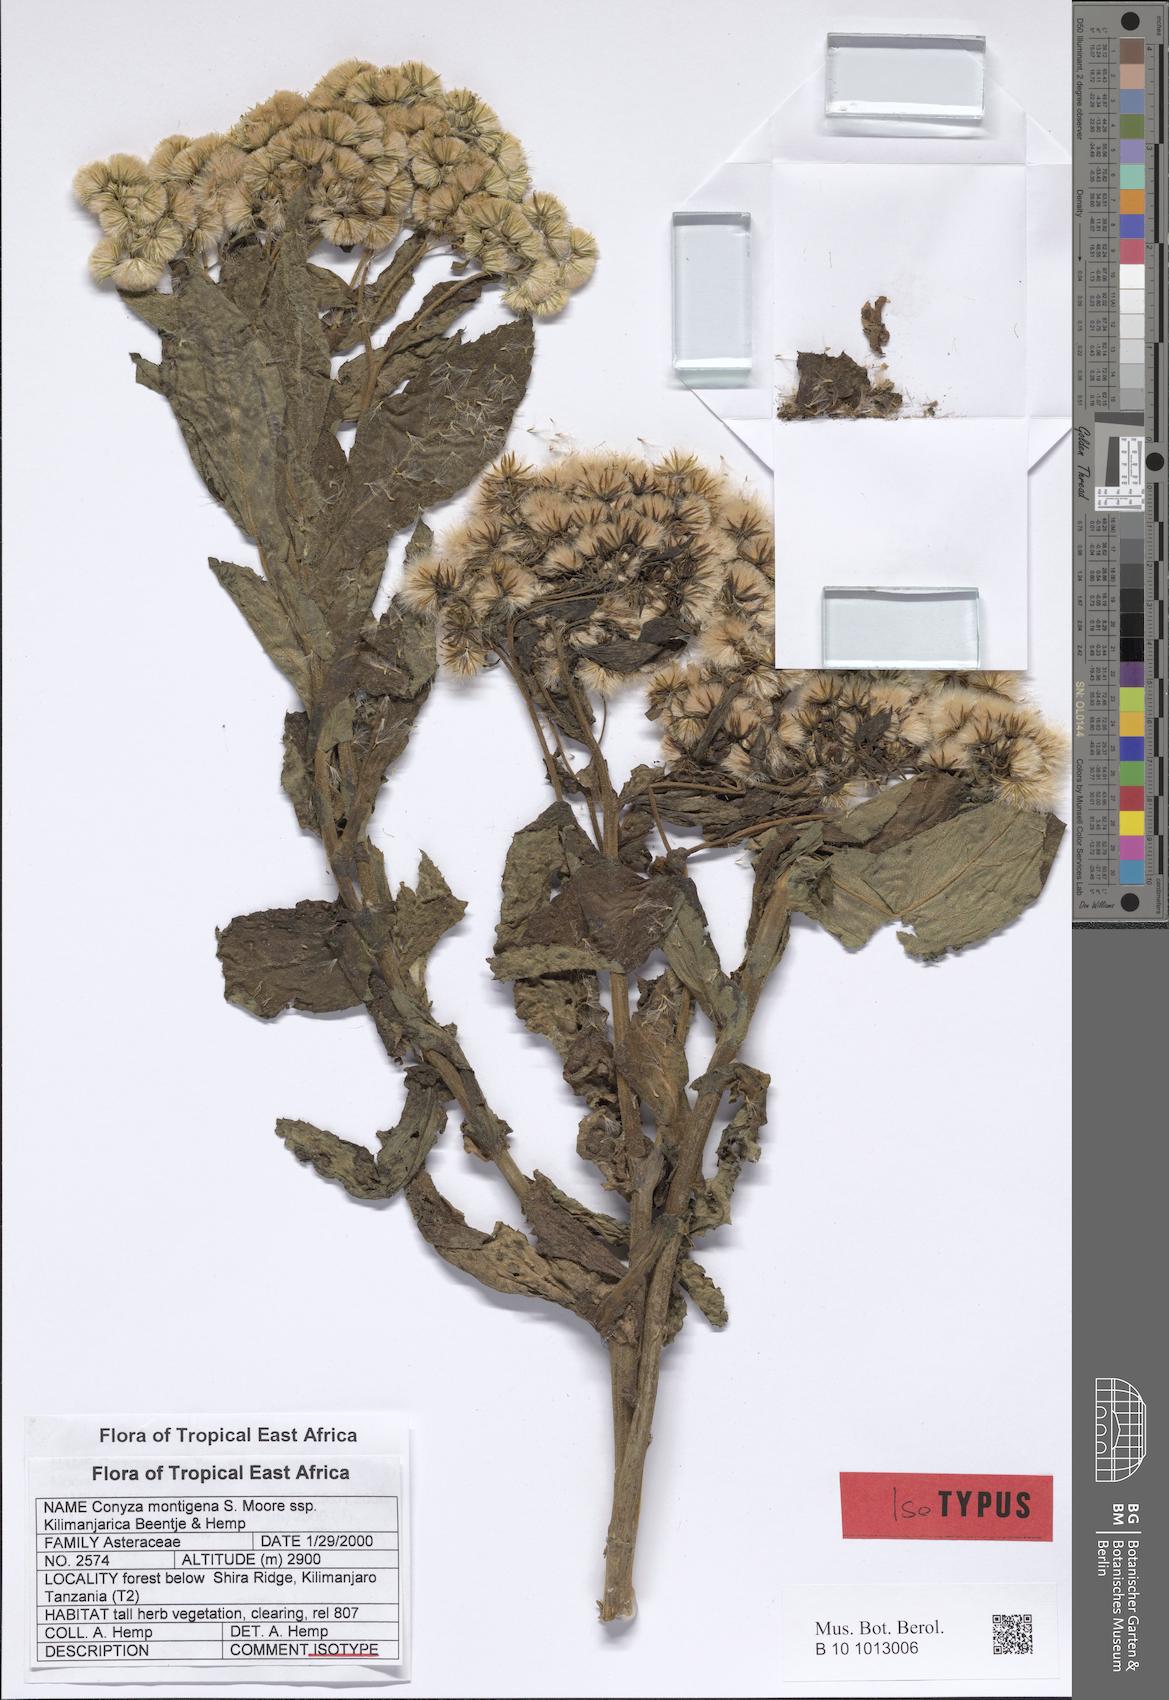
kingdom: Plantae
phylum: Tracheophyta
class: Magnoliopsida
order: Asterales
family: Asteraceae
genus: Conyza
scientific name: Conyza montigena
